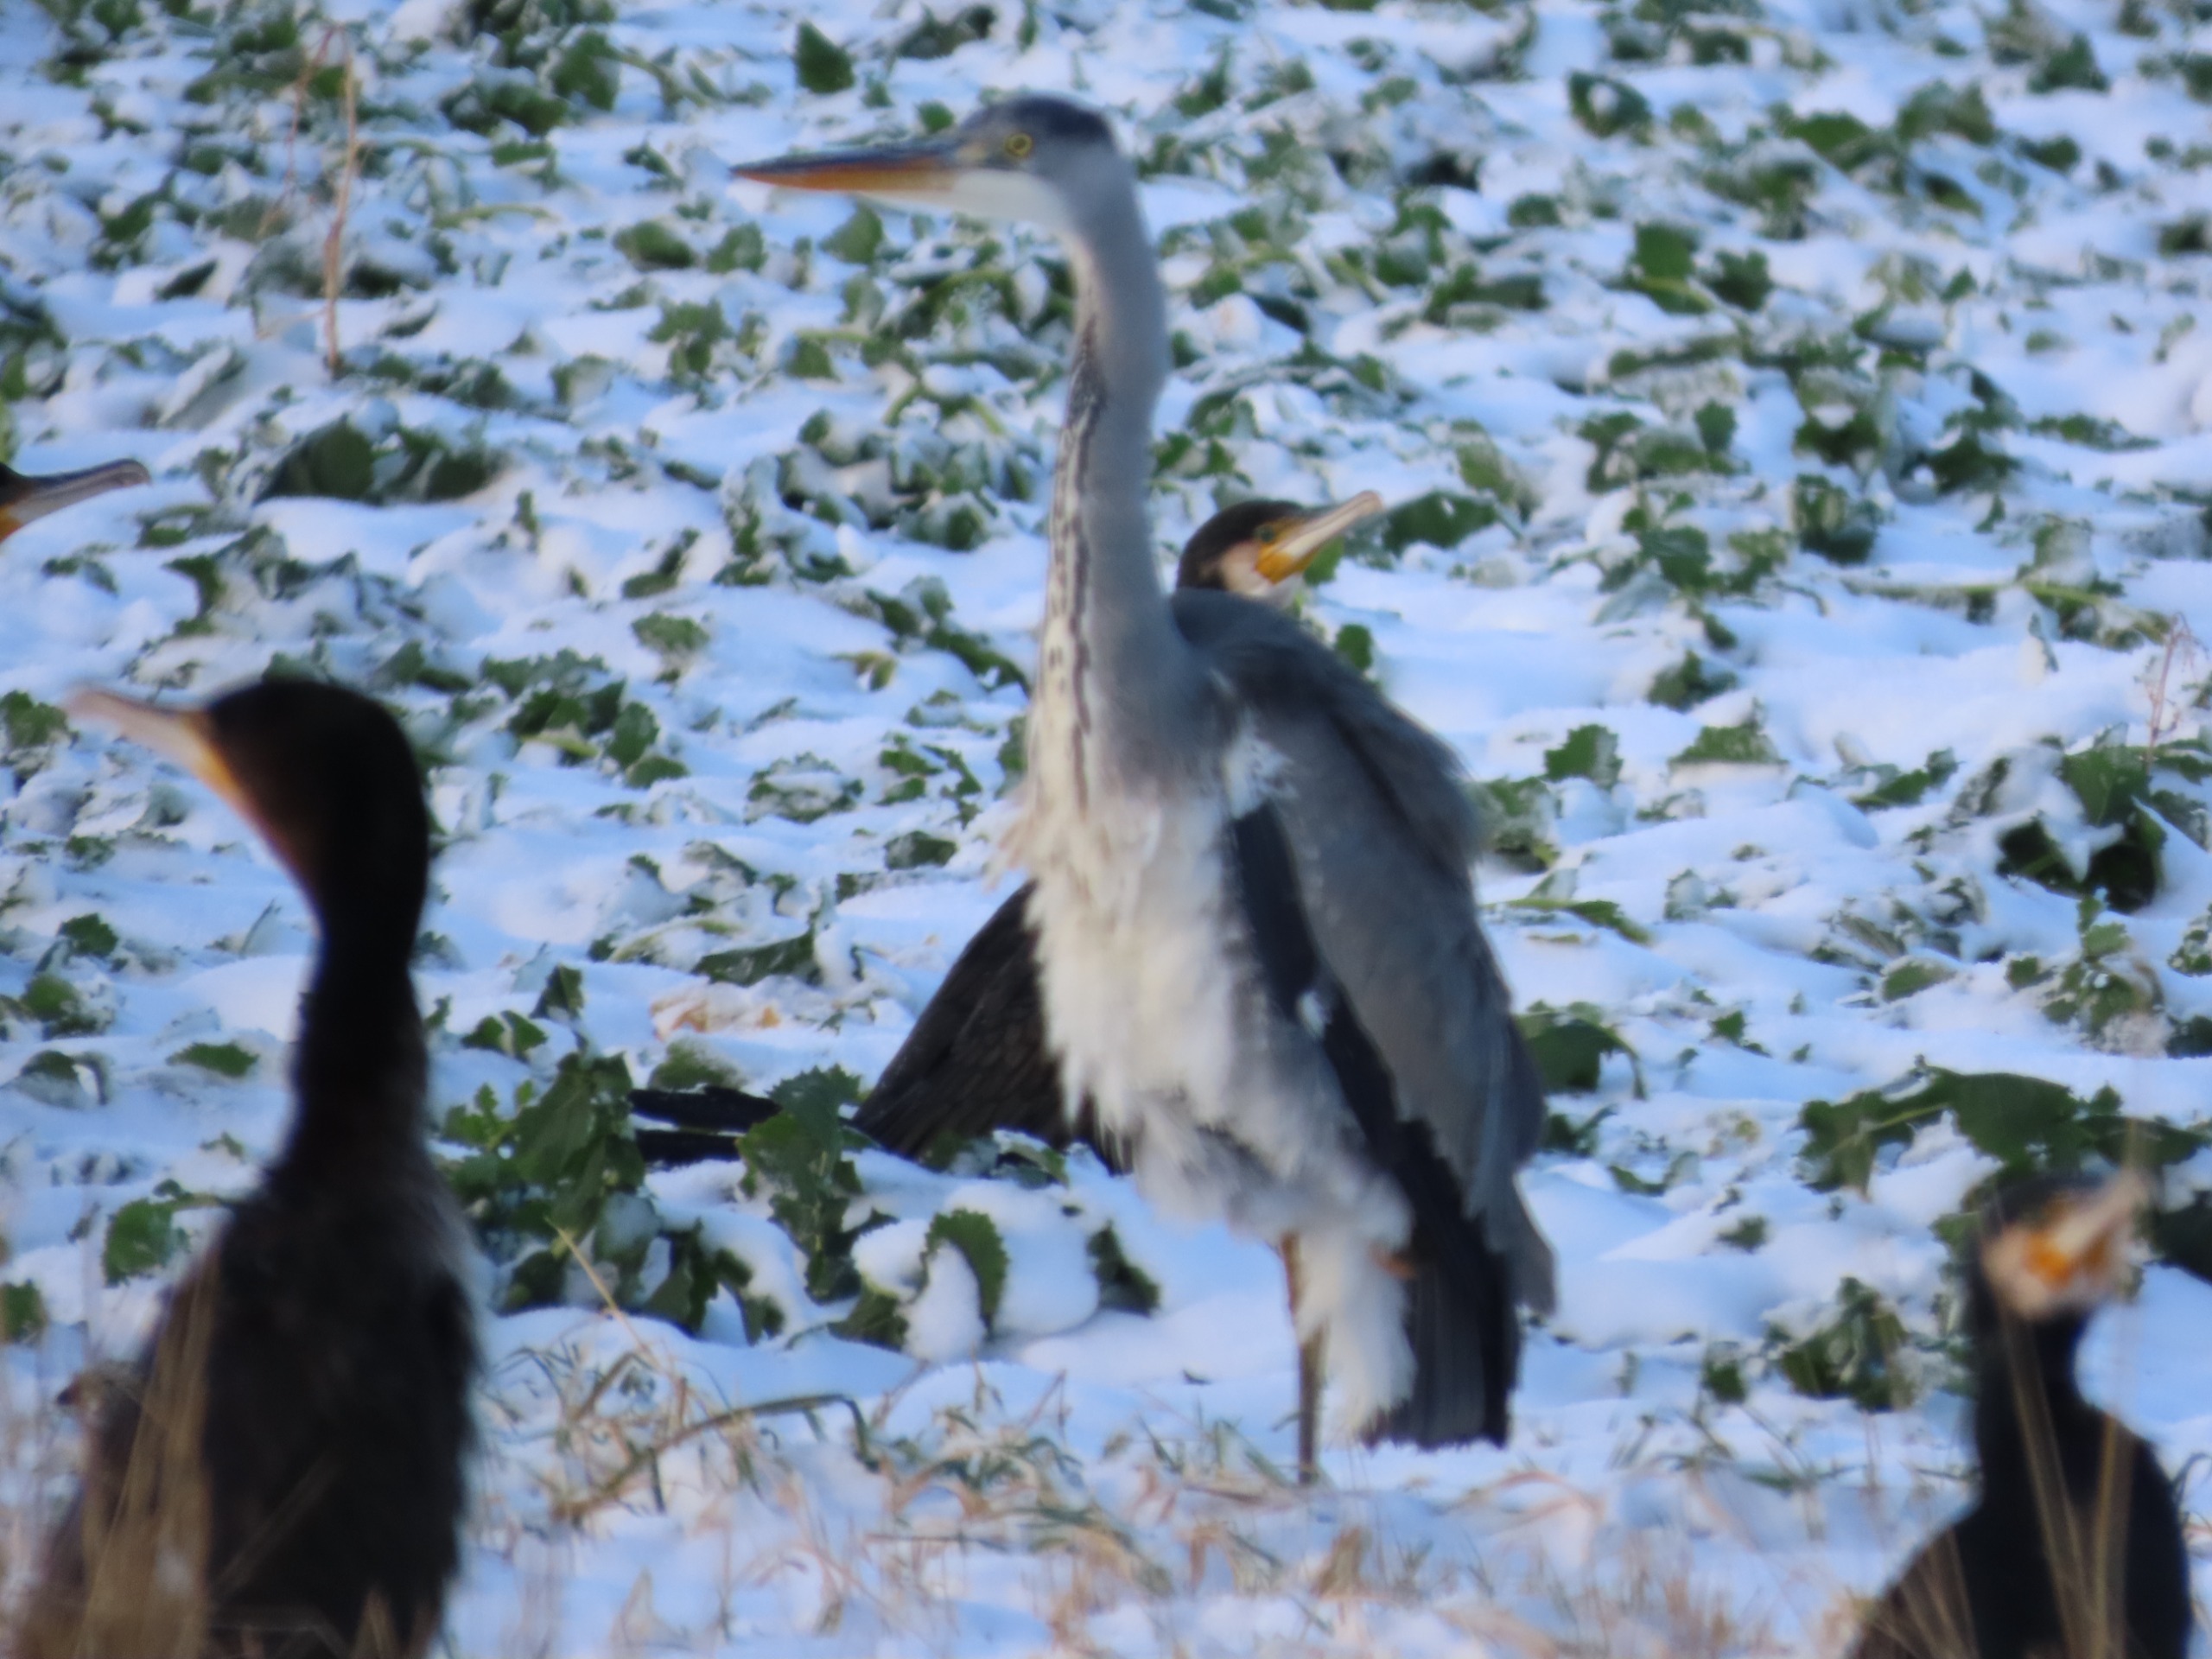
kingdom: Animalia
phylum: Chordata
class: Aves
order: Pelecaniformes
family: Ardeidae
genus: Ardea
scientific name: Ardea cinerea
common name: Fiskehejre
